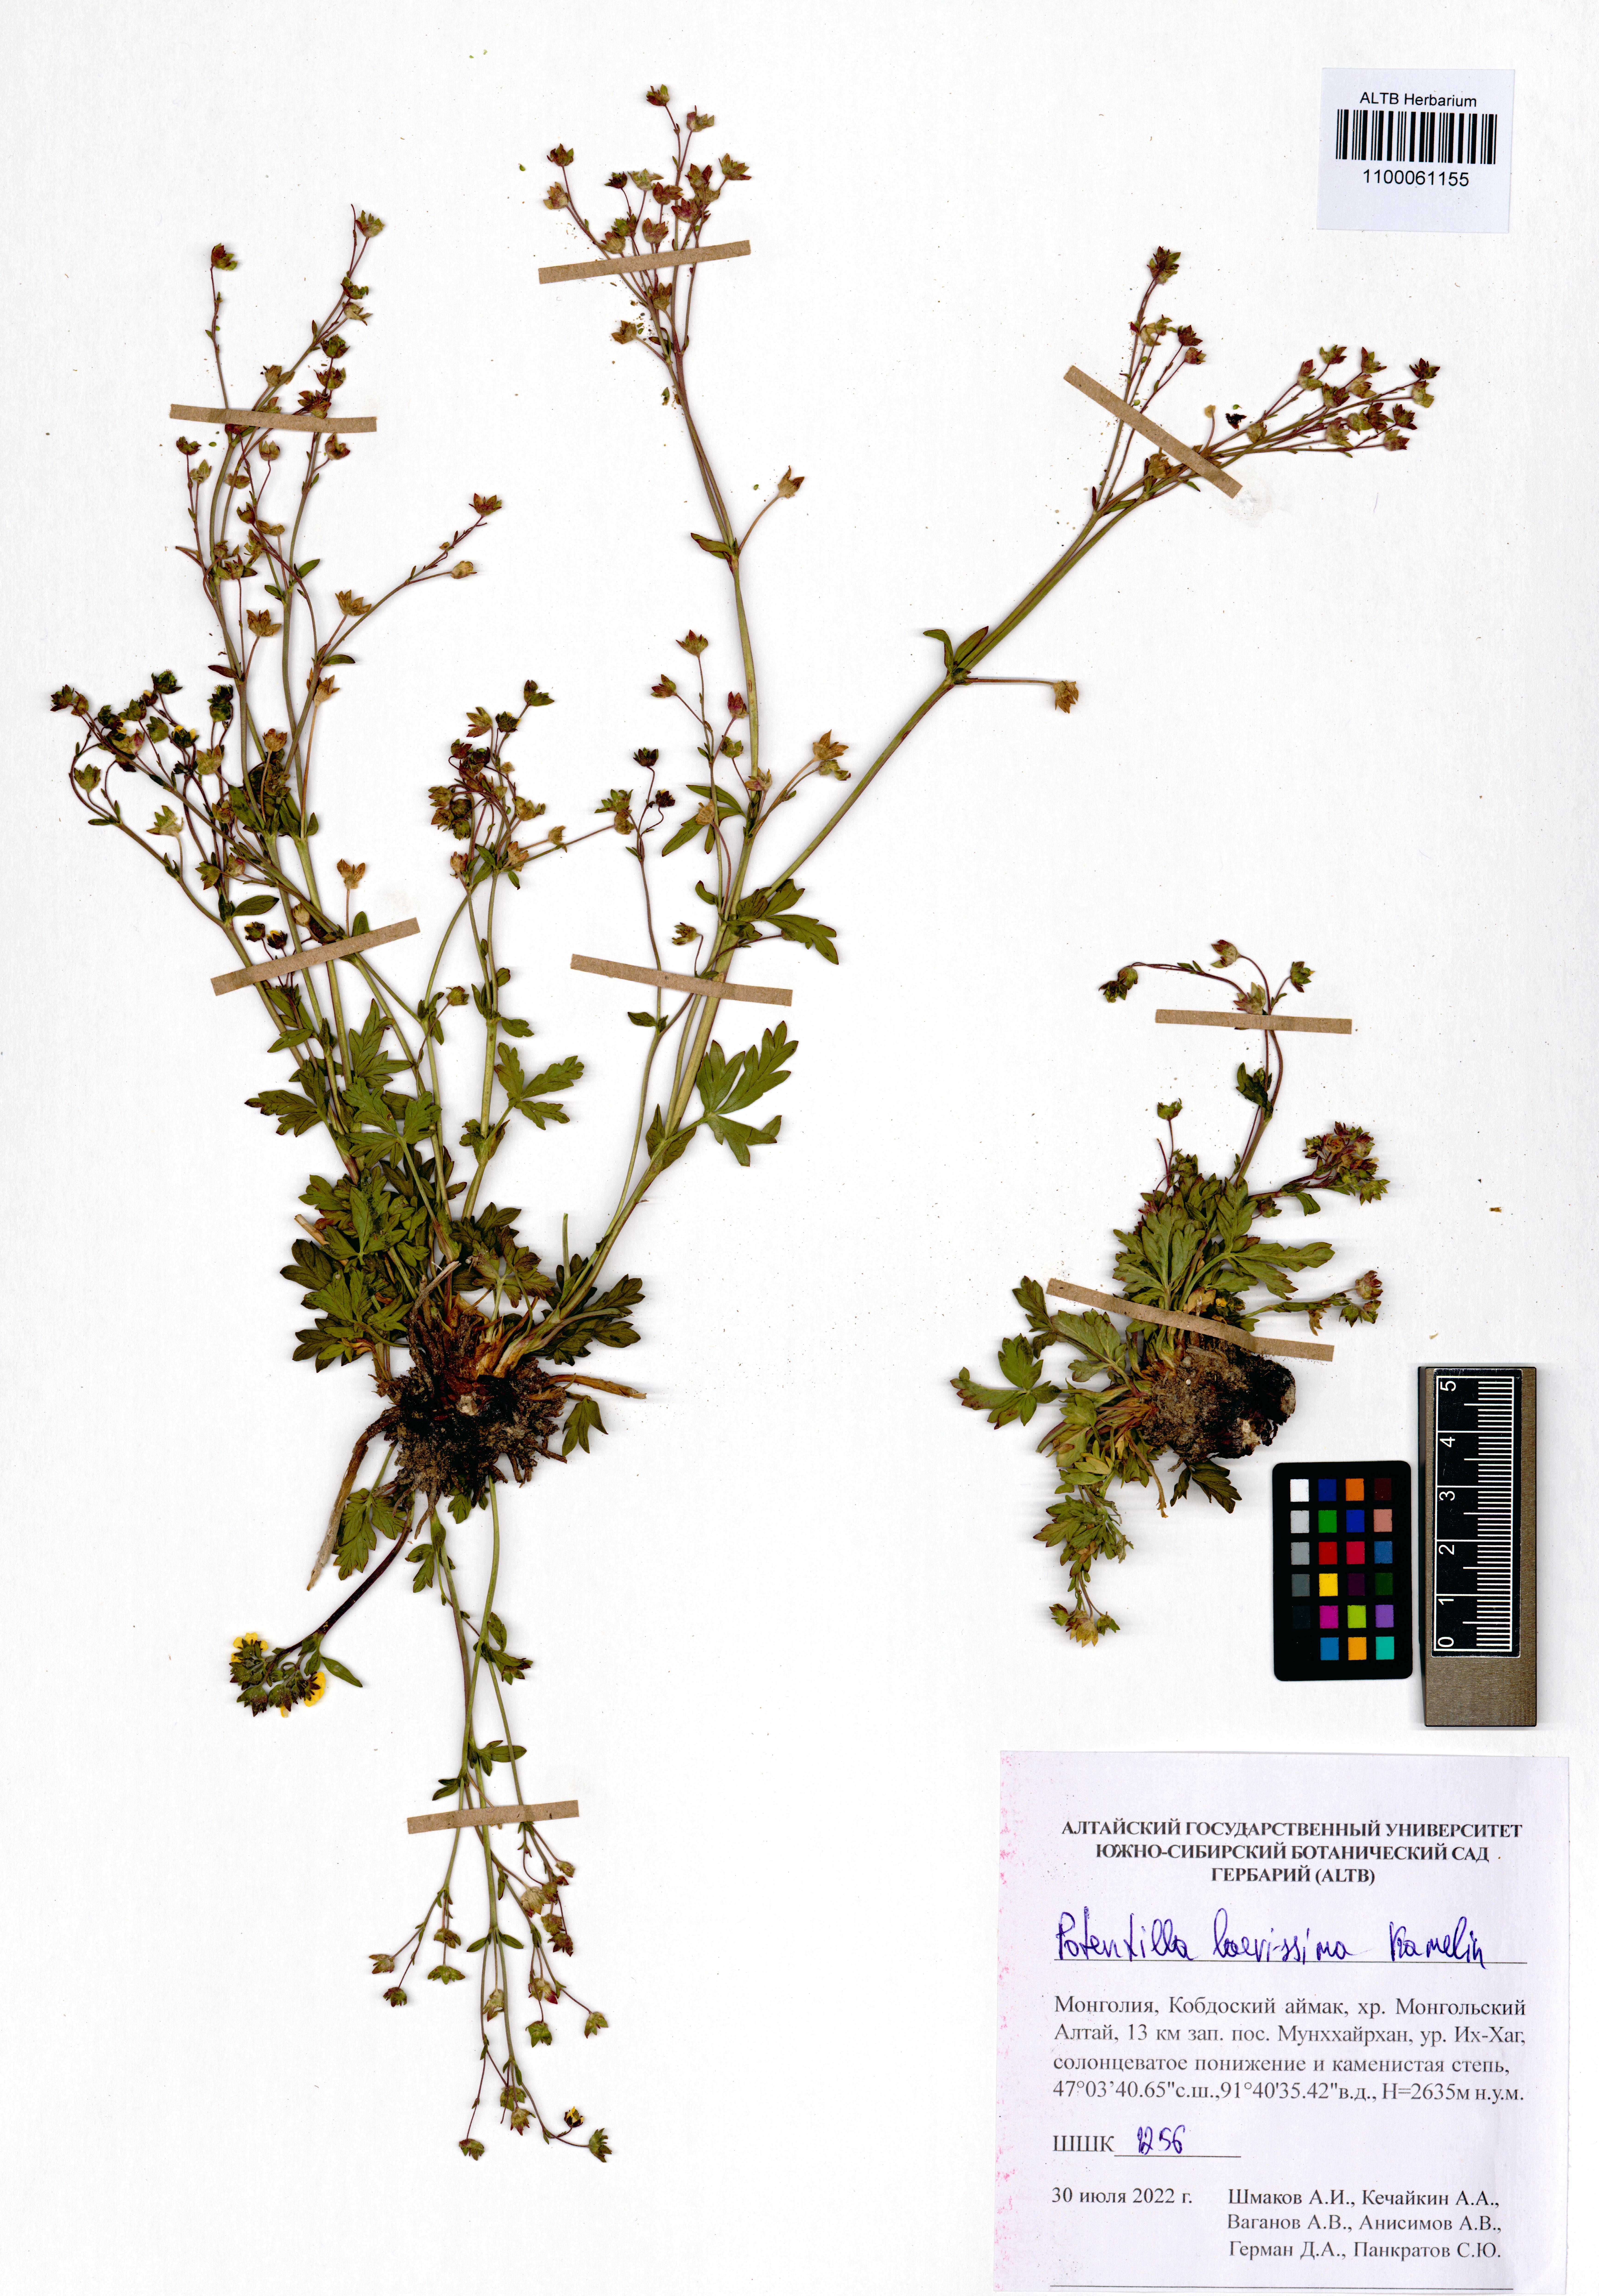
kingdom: Plantae
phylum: Tracheophyta
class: Magnoliopsida
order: Rosales
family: Rosaceae
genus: Potentilla
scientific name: Potentilla laevissima
